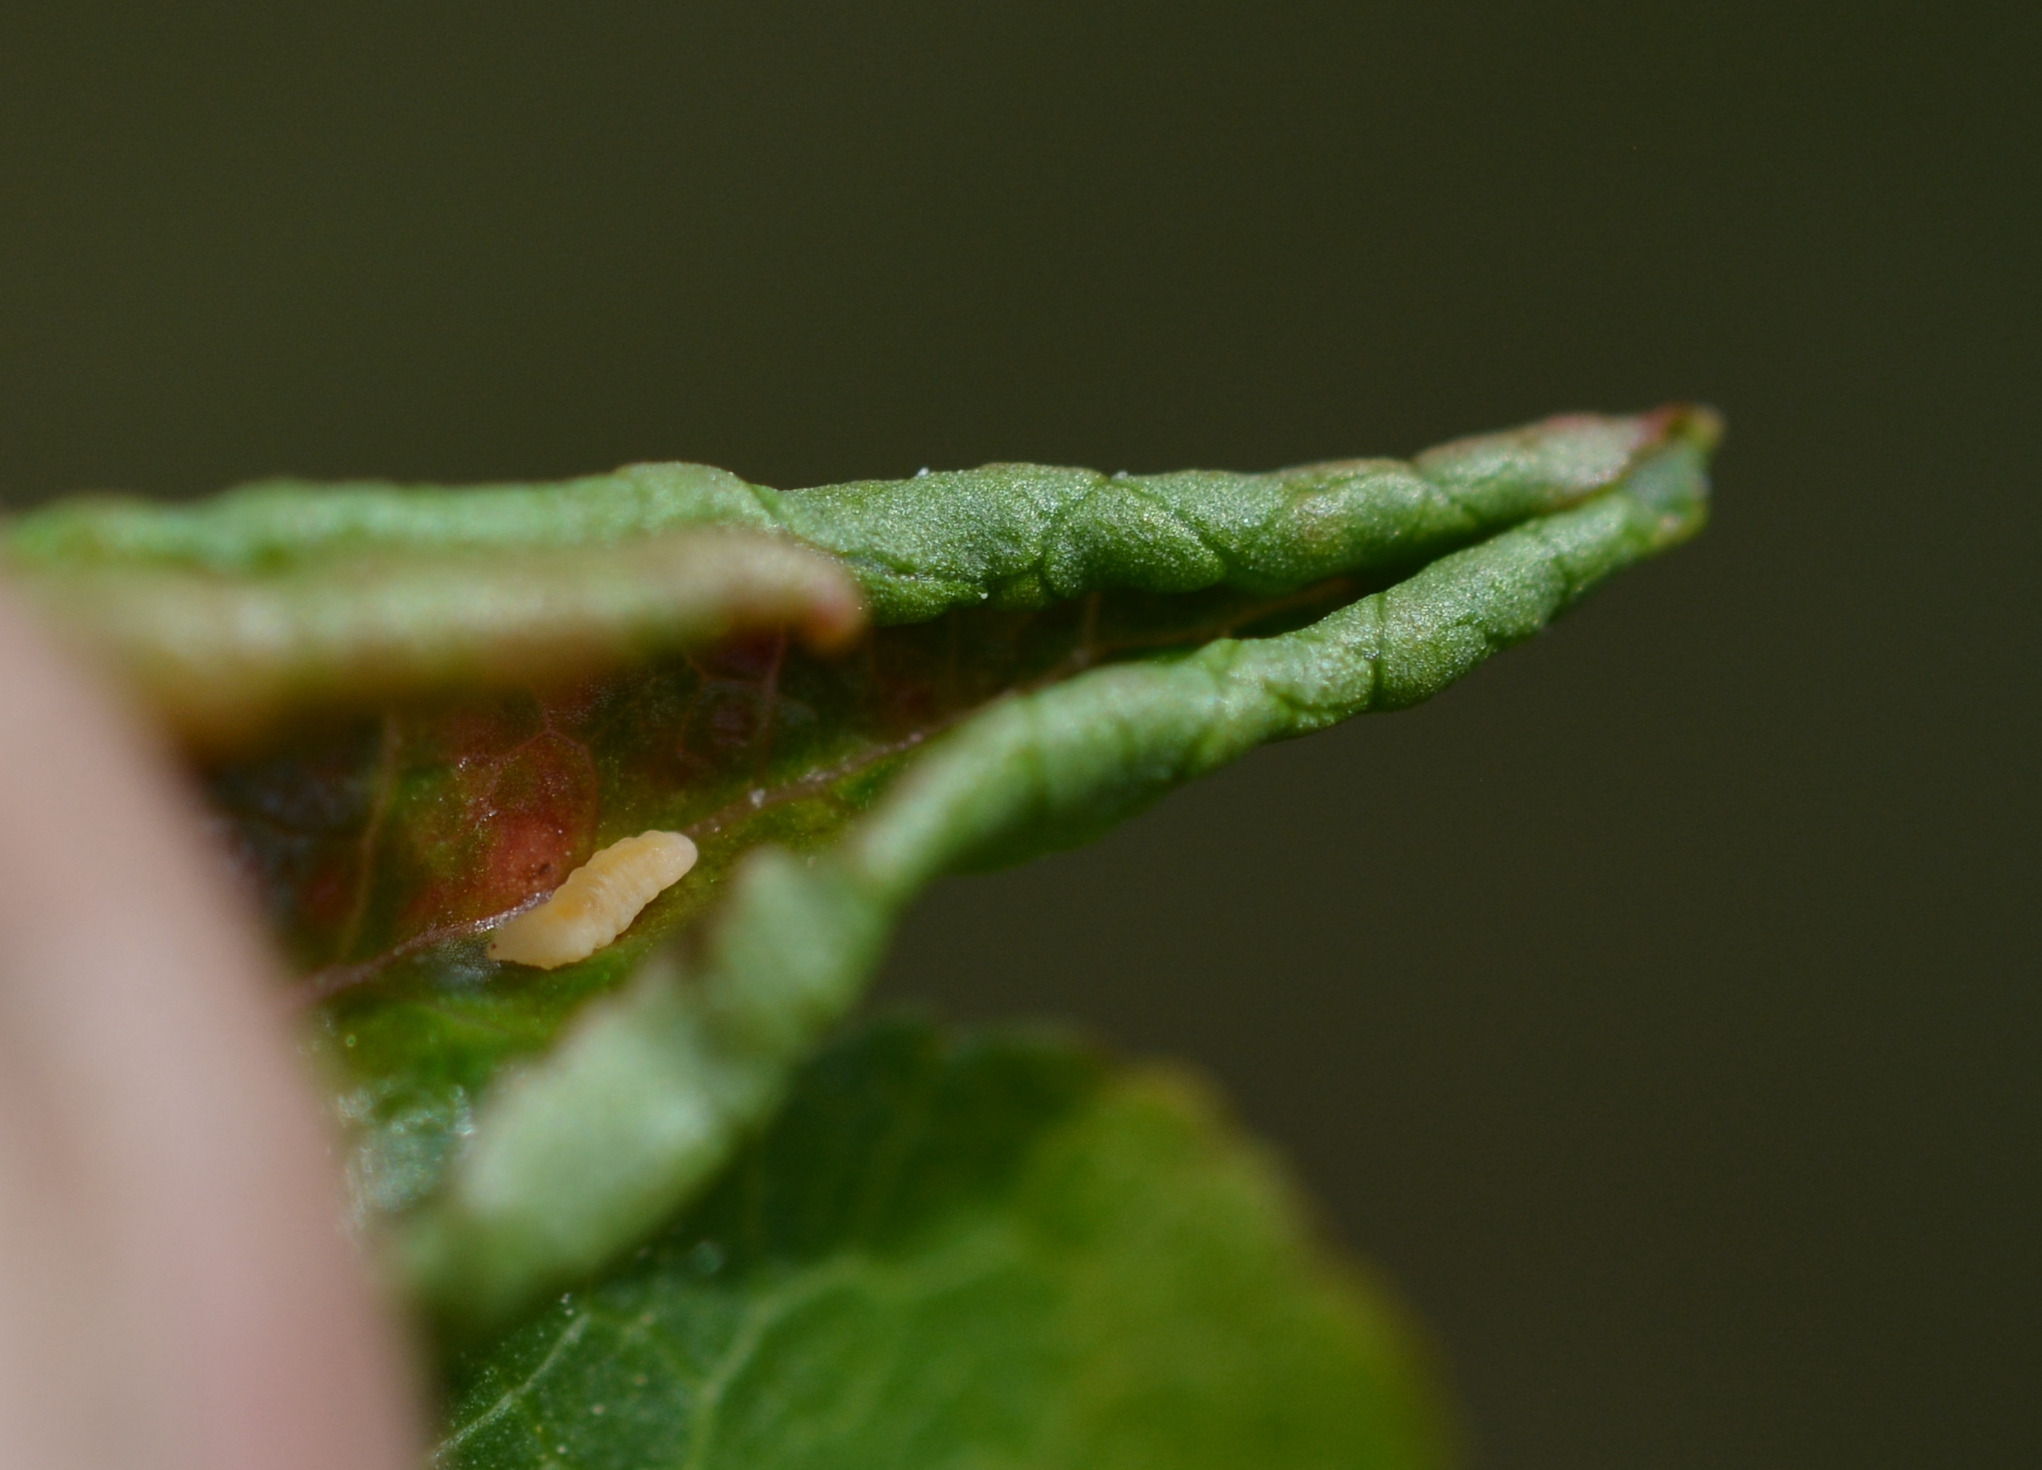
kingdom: Animalia
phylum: Arthropoda
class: Insecta
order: Diptera
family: Cecidomyiidae
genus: Jaapiella
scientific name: Jaapiella vacciniorum
